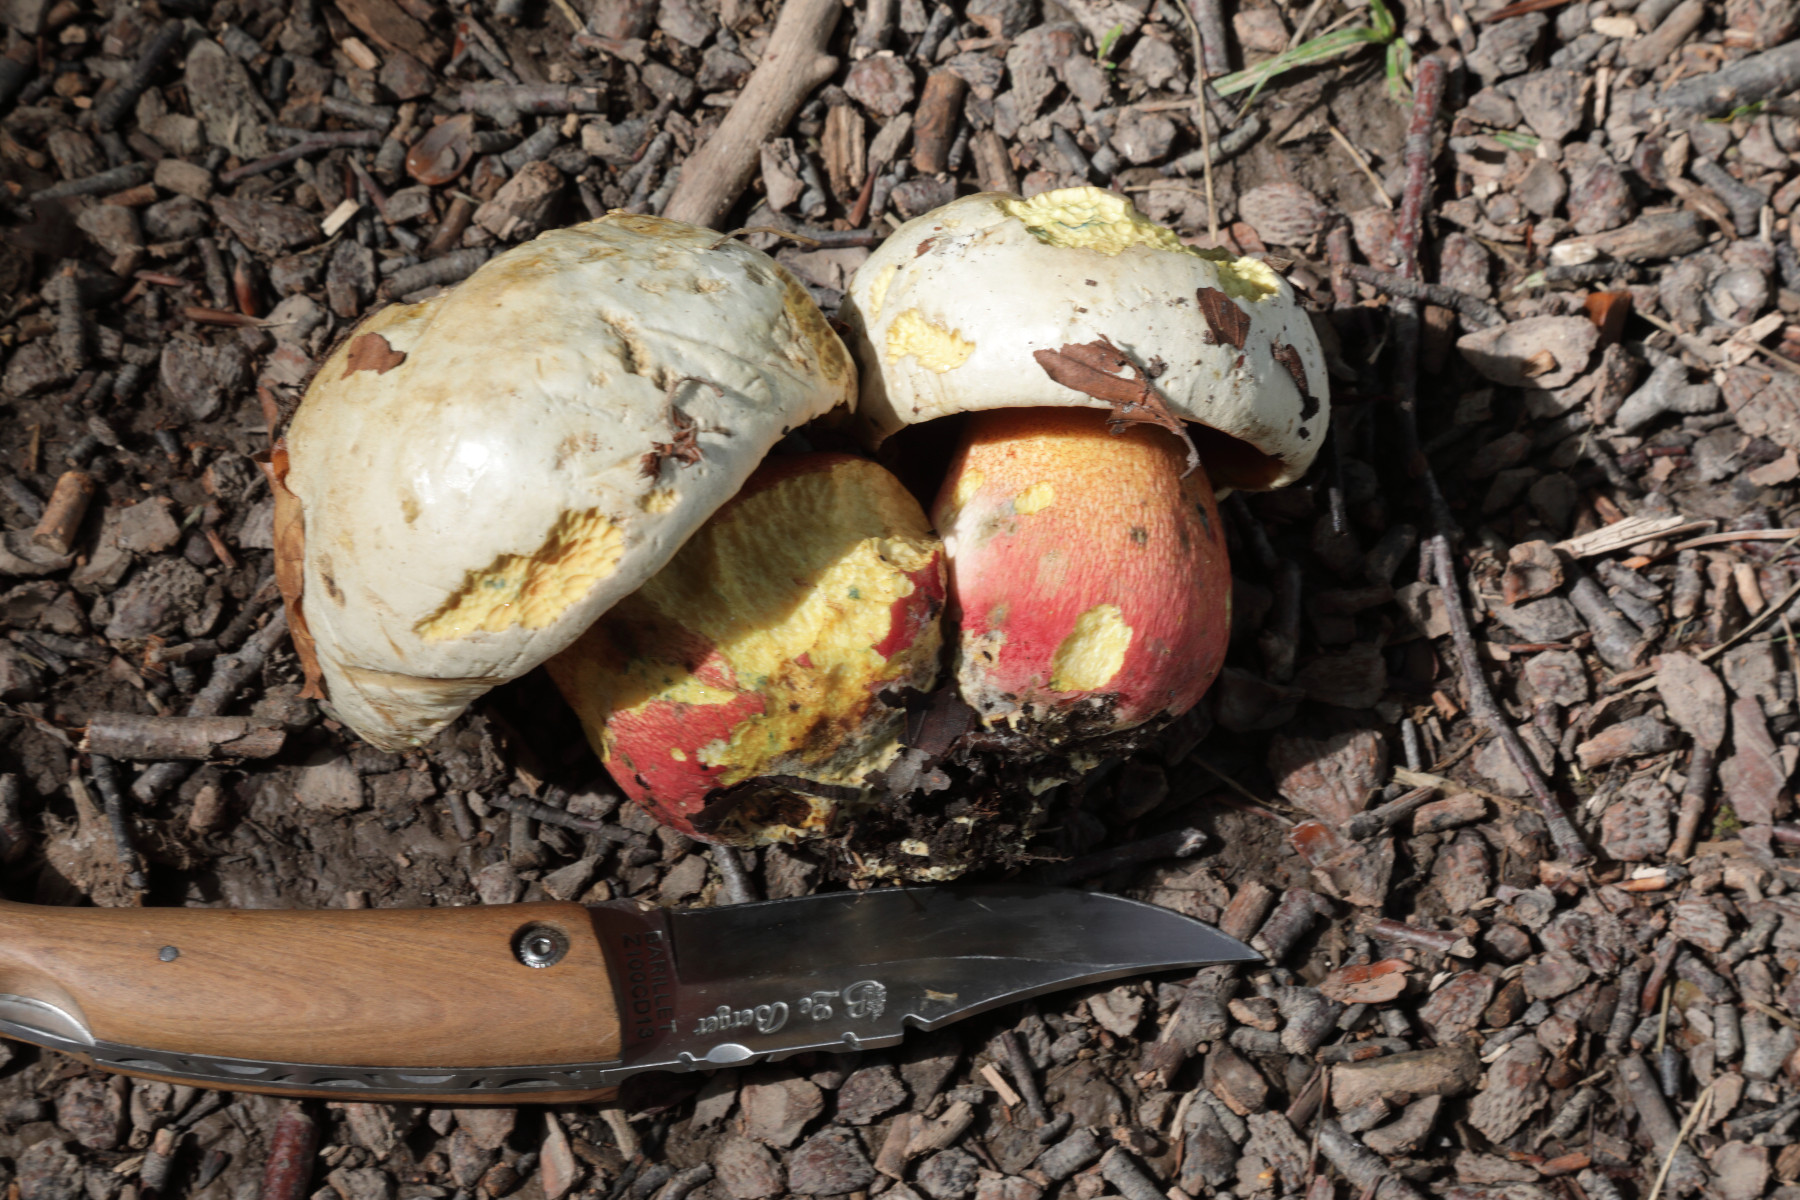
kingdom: Fungi
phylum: Basidiomycota
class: Agaricomycetes
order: Boletales
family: Boletaceae
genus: Rubroboletus
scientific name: Rubroboletus satanas
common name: Satans rørhat
